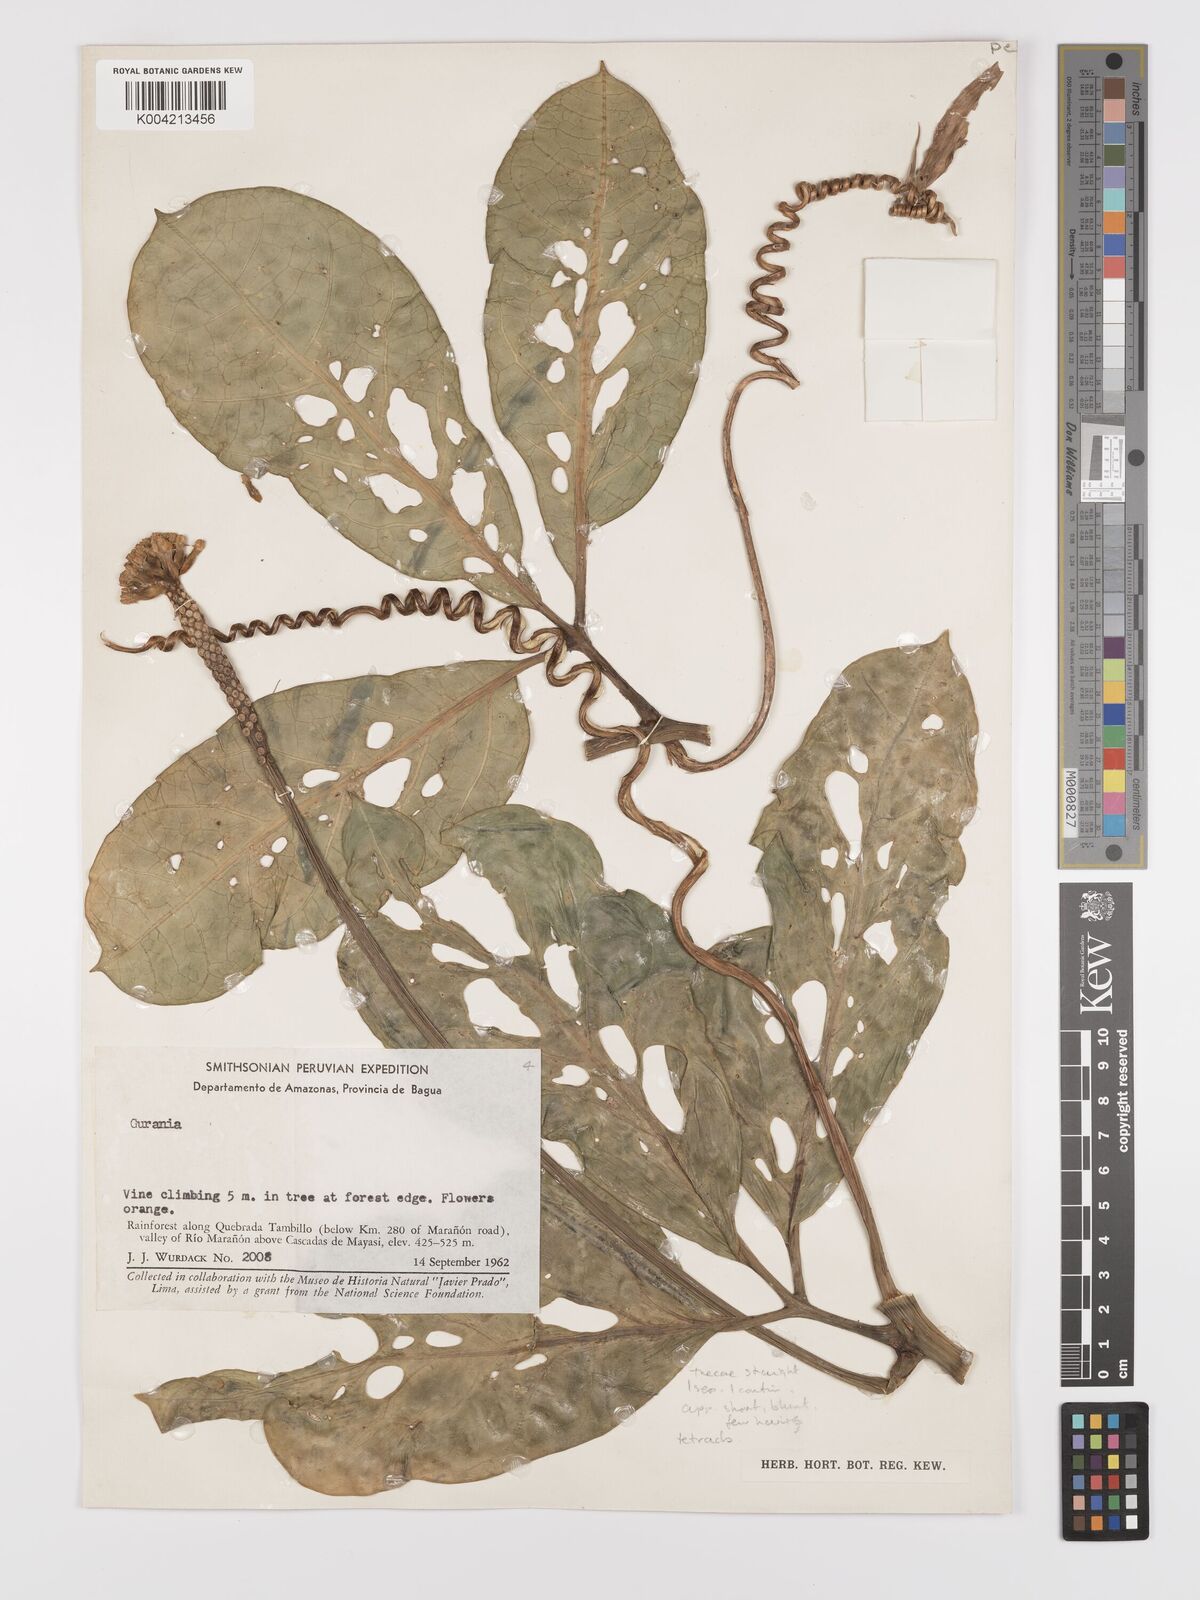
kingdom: Plantae
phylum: Tracheophyta
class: Magnoliopsida
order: Cucurbitales
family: Cucurbitaceae
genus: Psiguria
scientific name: Psiguria triphylla
